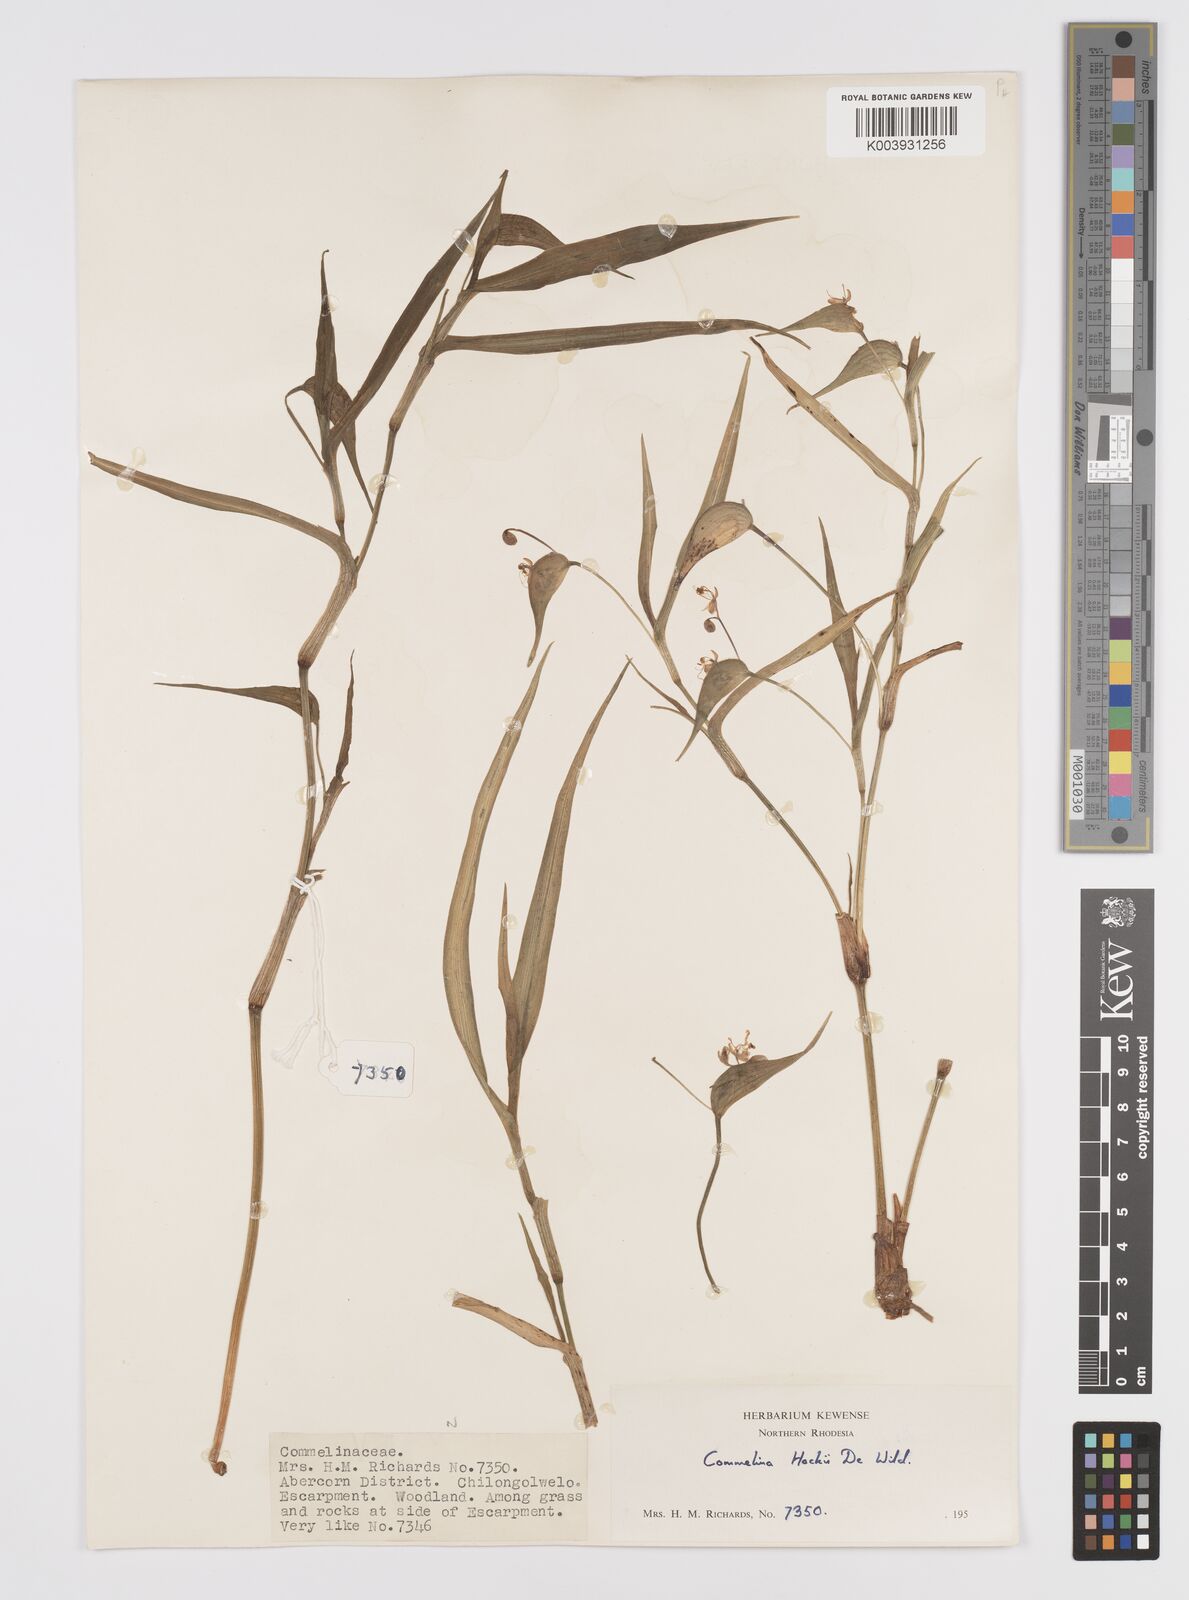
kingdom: Plantae
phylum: Tracheophyta
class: Liliopsida
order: Commelinales
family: Commelinaceae
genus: Commelina
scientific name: Commelina hockii
